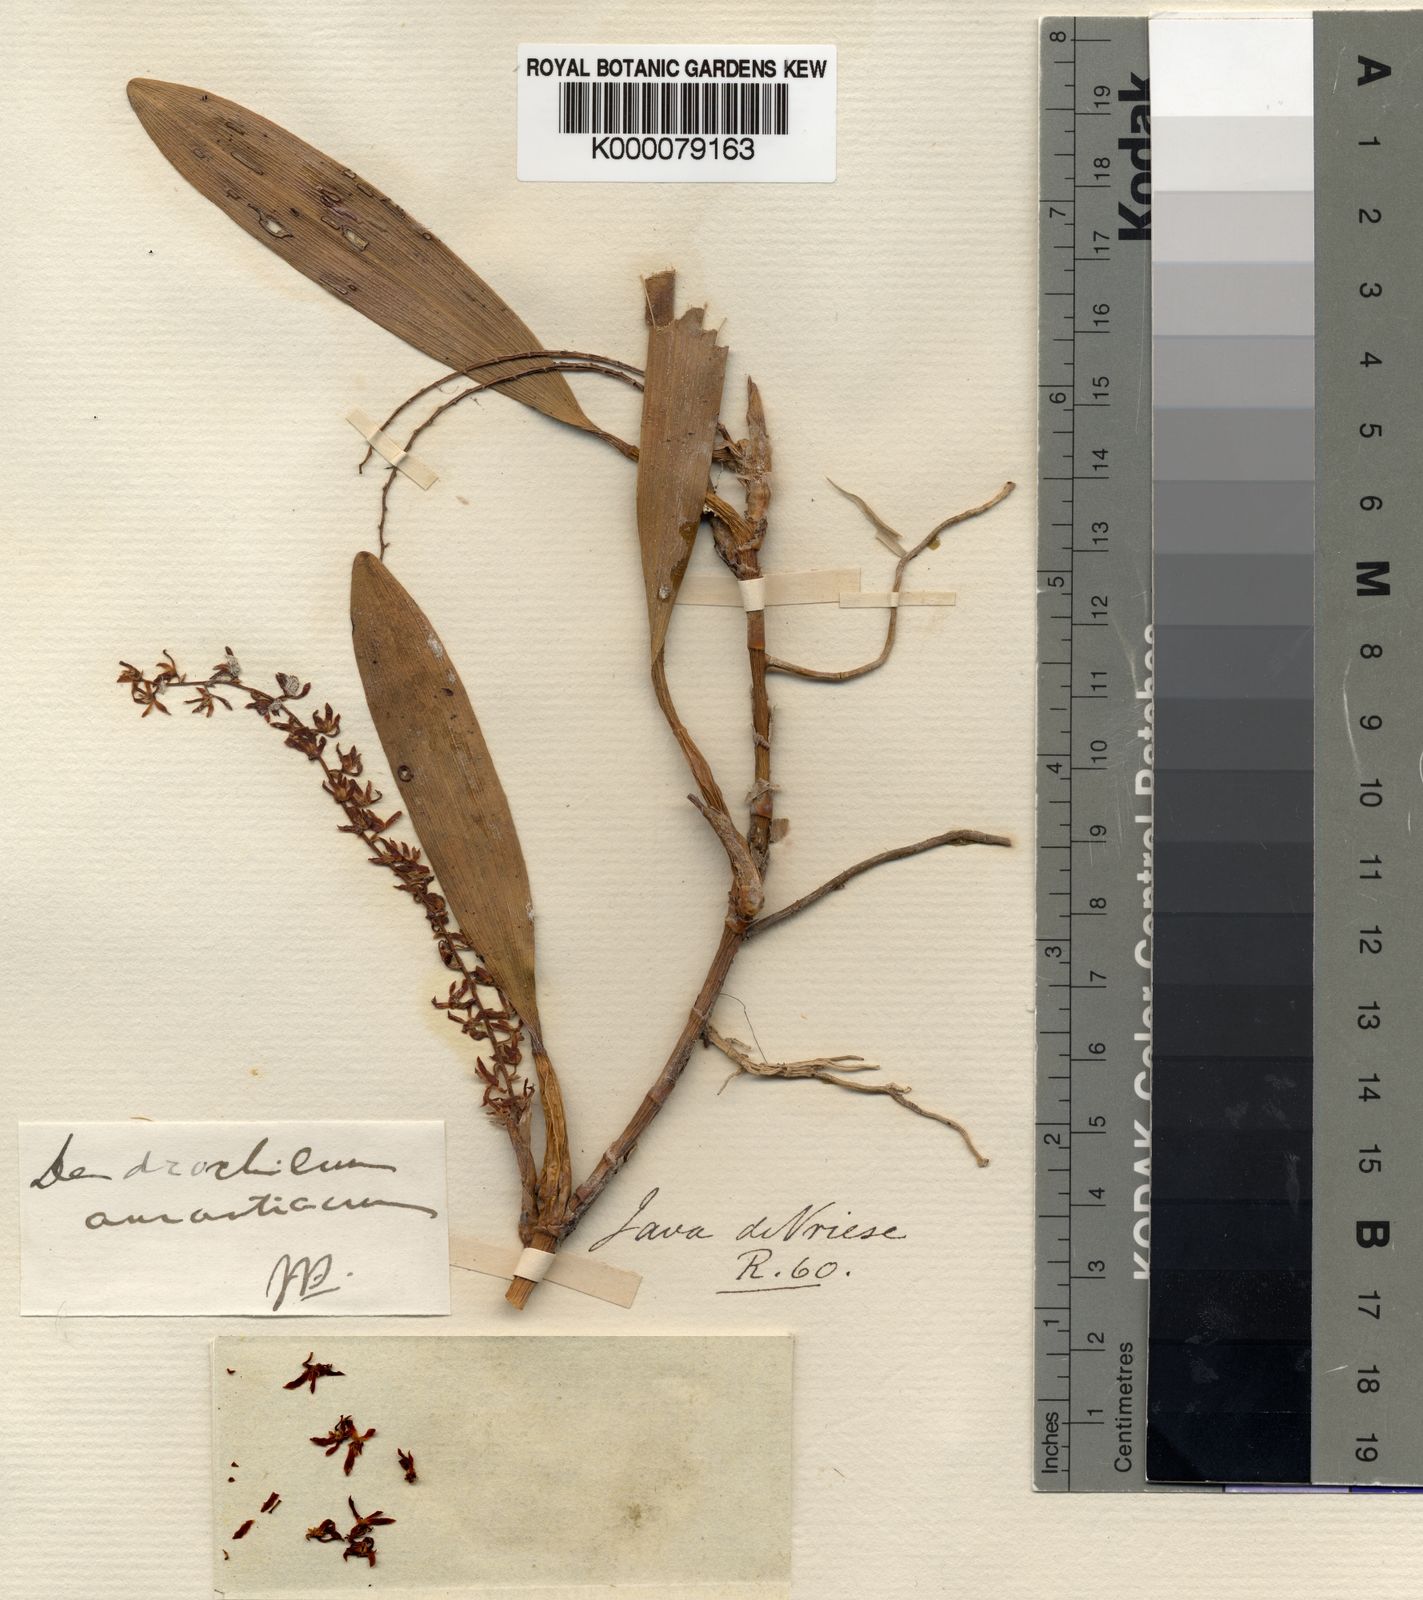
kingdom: Plantae
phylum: Tracheophyta
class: Liliopsida
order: Asparagales
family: Orchidaceae
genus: Coelogyne
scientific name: Coelogyne aurantiaca
